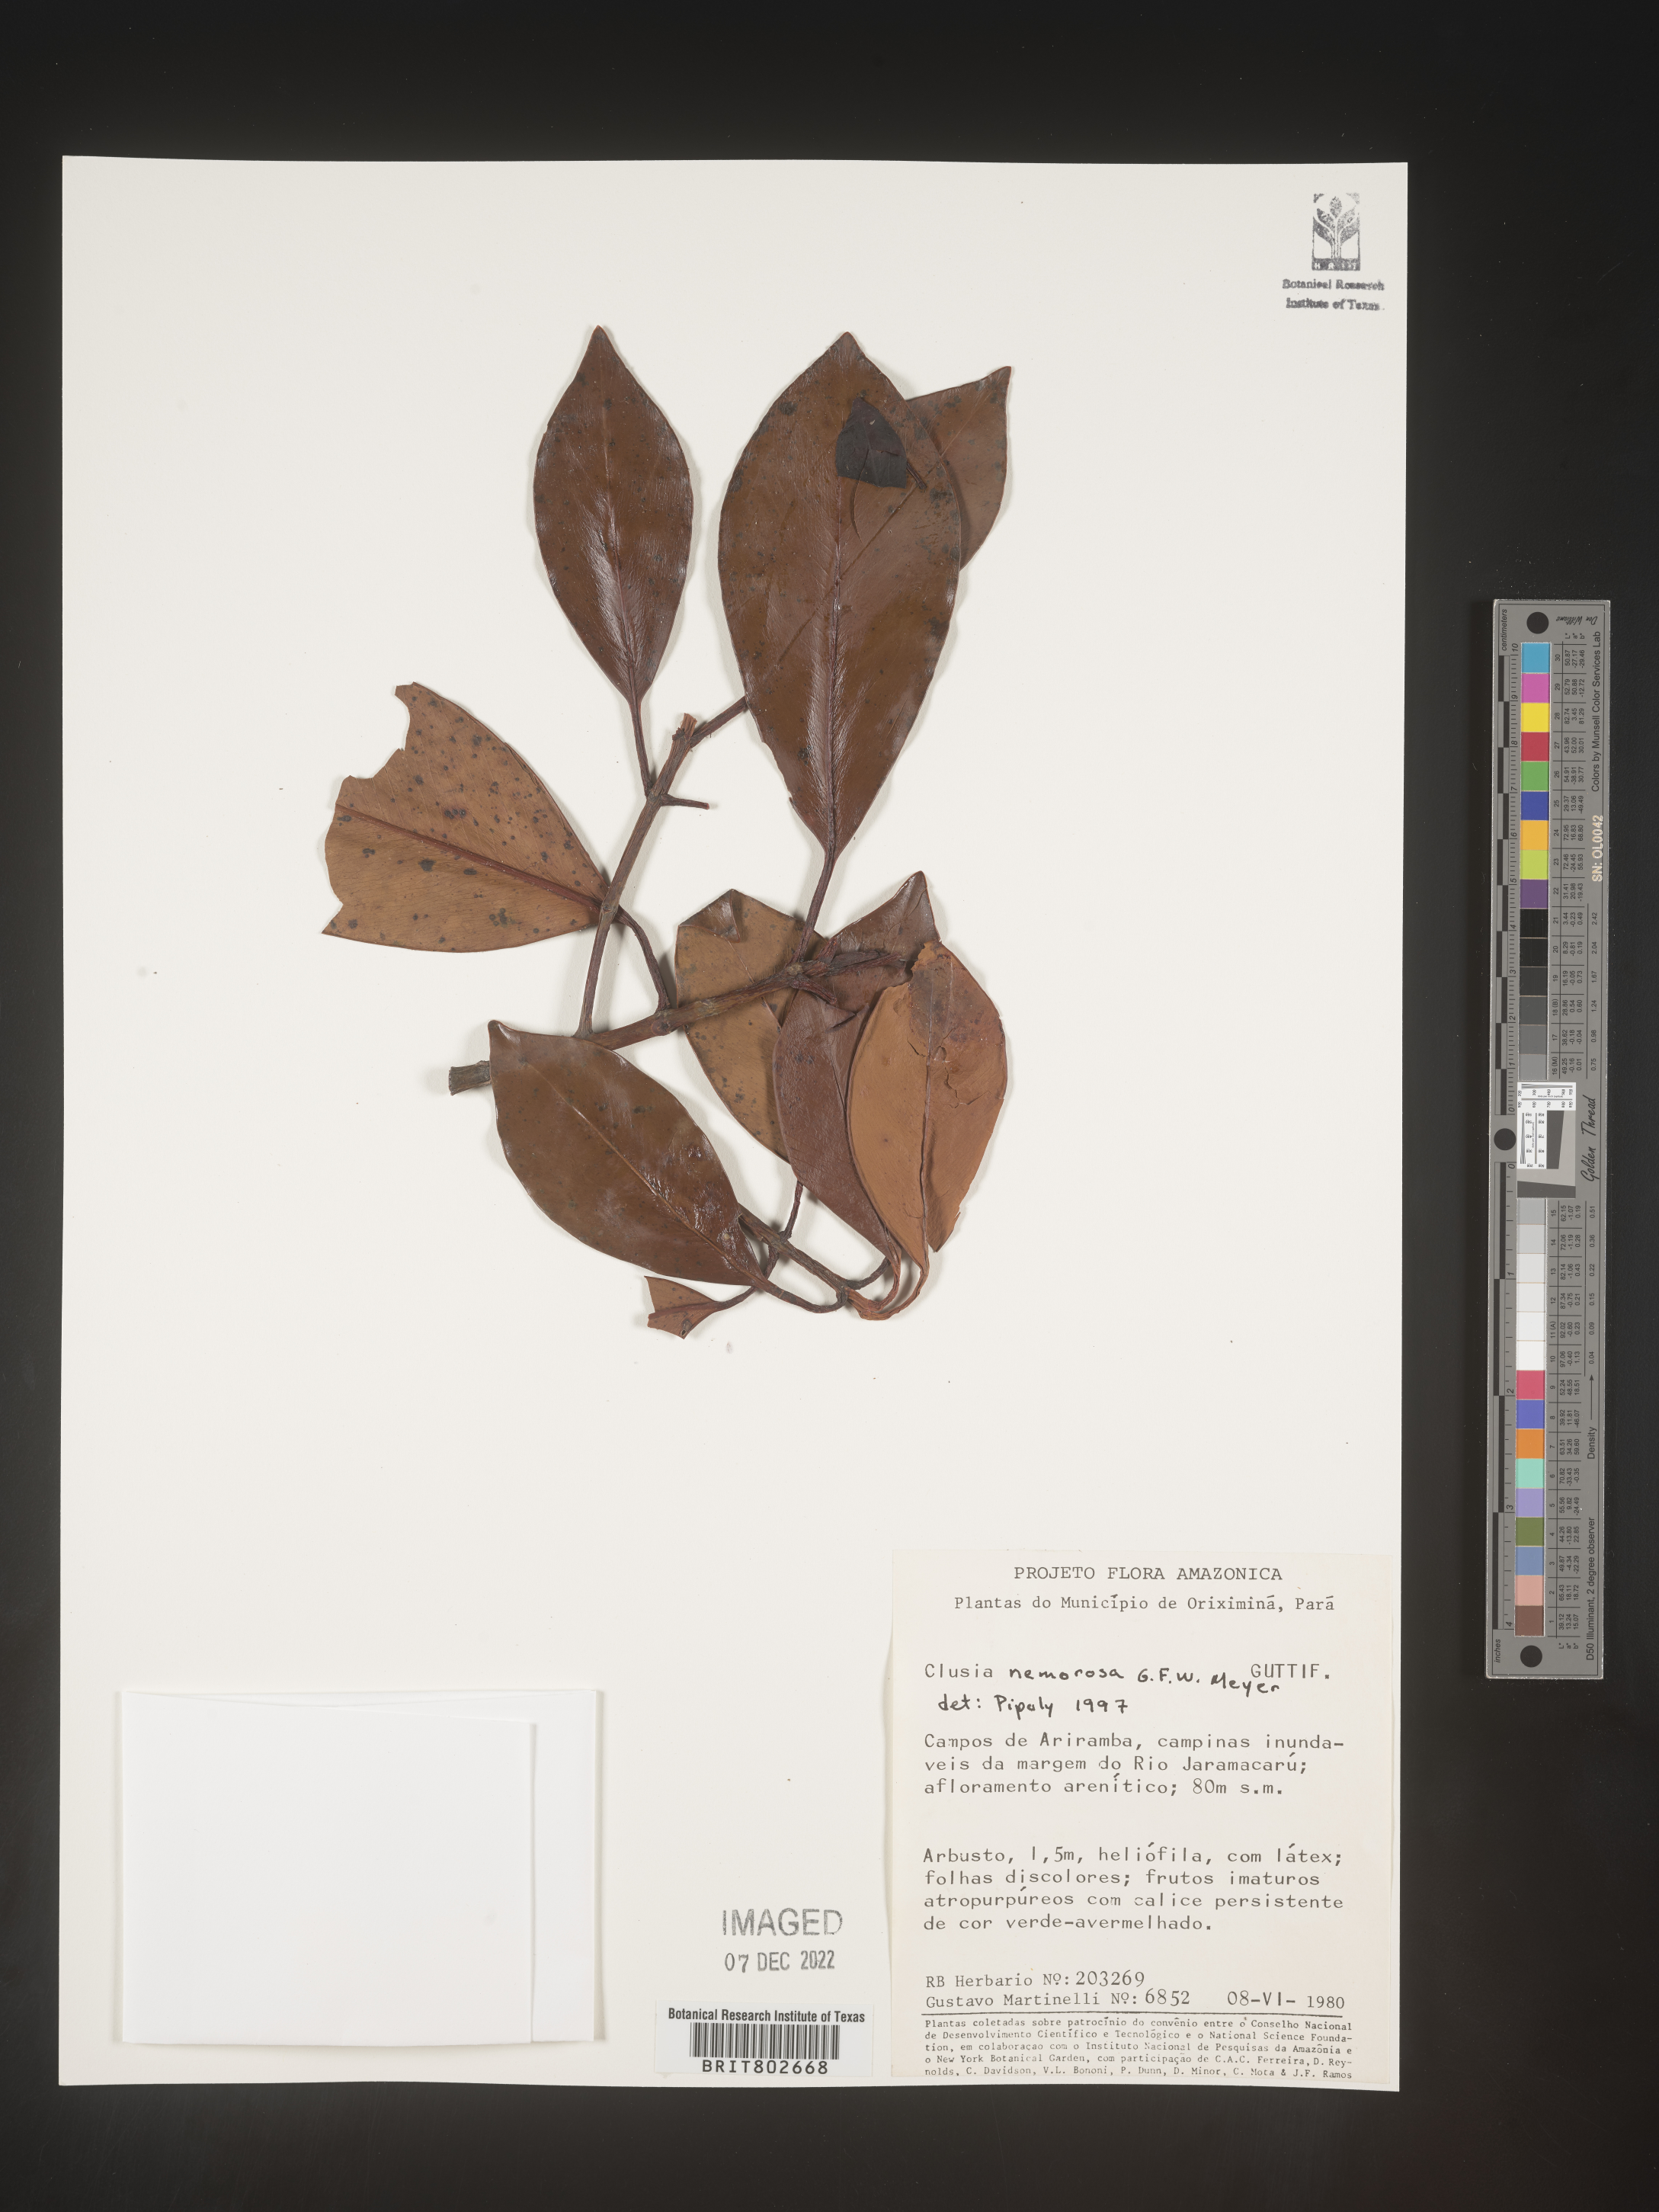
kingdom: Plantae
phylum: Tracheophyta
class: Magnoliopsida
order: Malpighiales
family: Clusiaceae
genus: Clusia
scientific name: Clusia nemorosa
